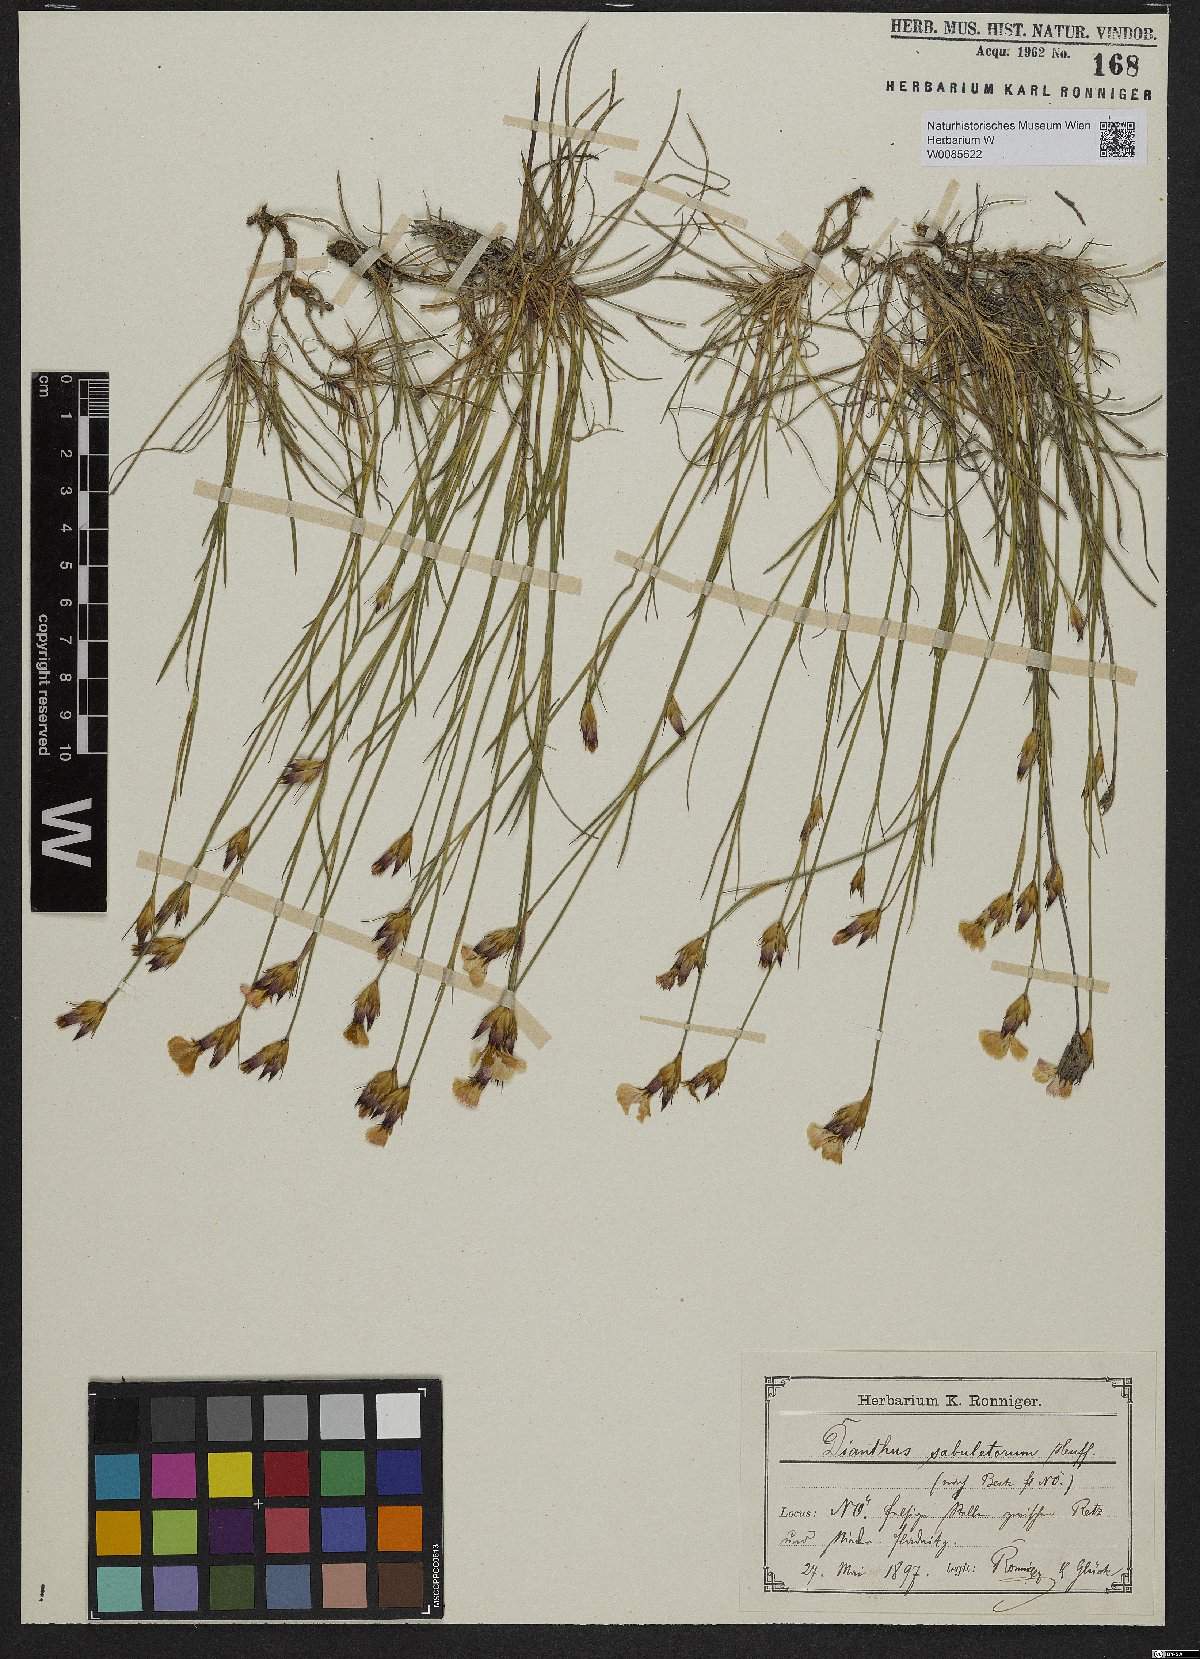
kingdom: Plantae
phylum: Tracheophyta
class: Magnoliopsida
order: Caryophyllales
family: Caryophyllaceae
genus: Dianthus
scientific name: Dianthus giganteiformis
